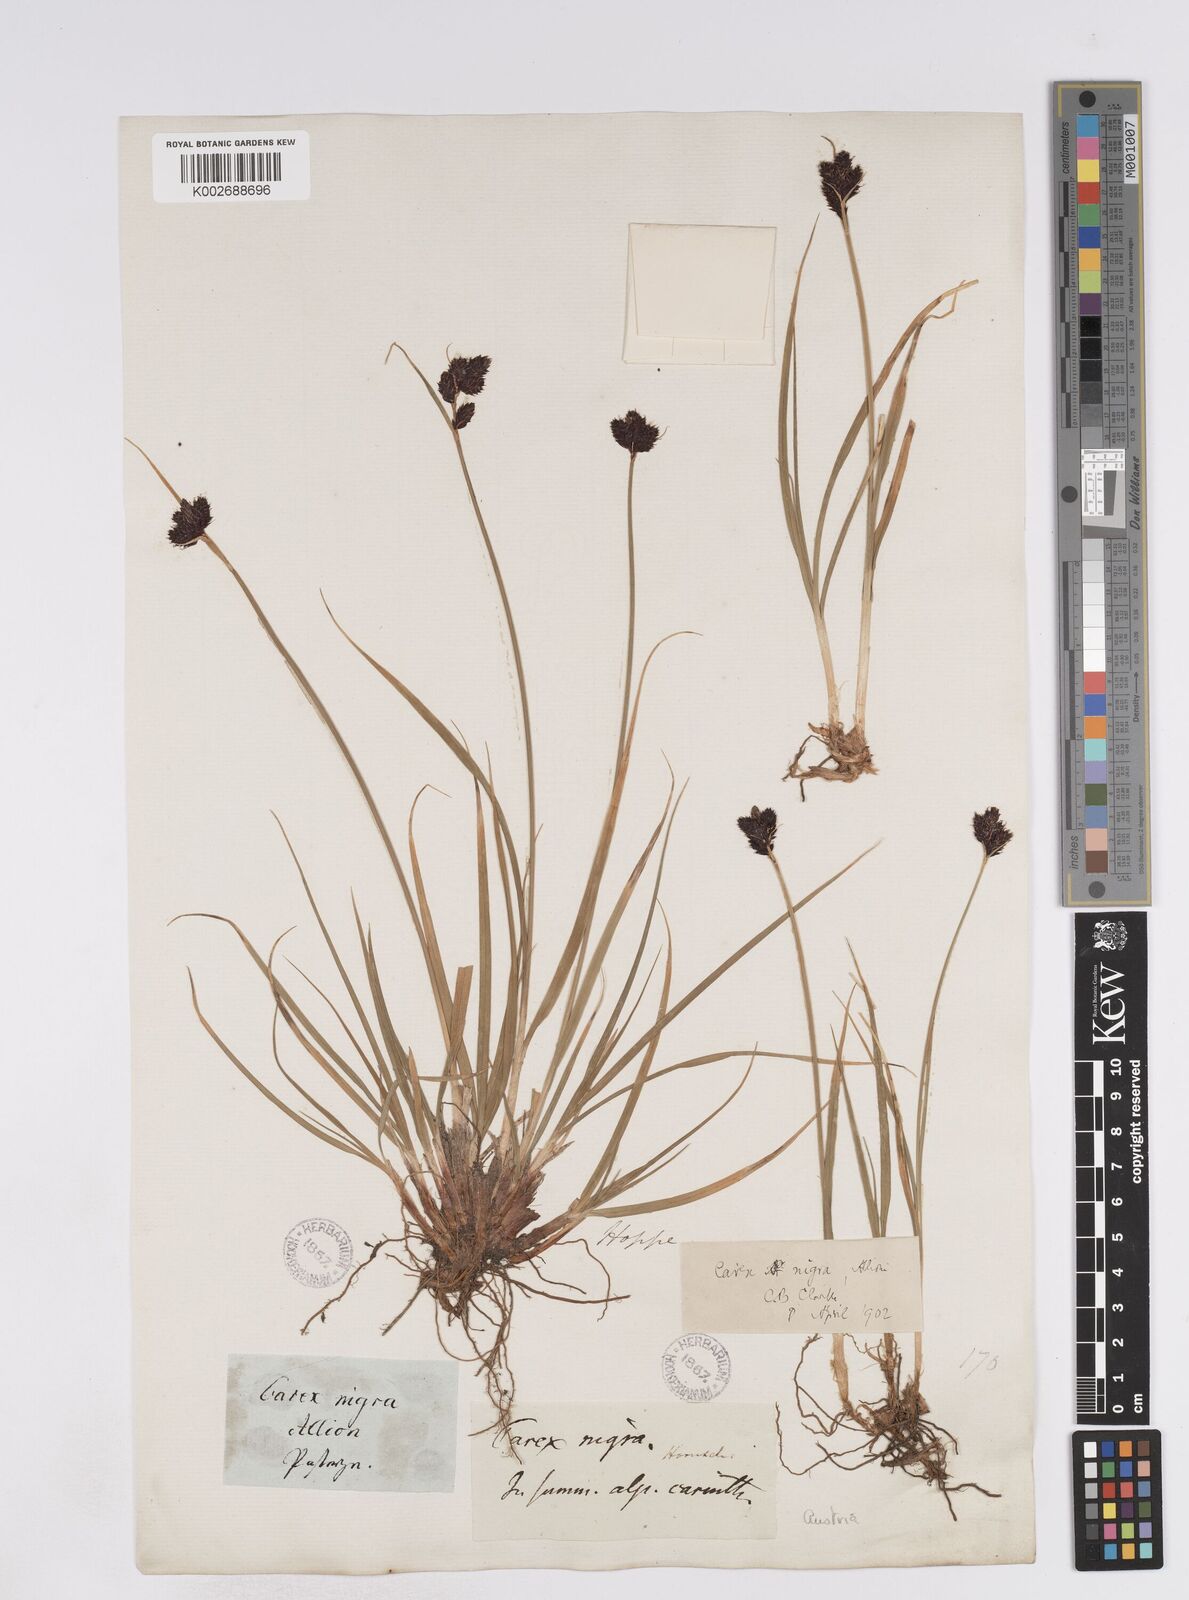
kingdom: Plantae
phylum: Tracheophyta
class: Liliopsida
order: Poales
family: Cyperaceae
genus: Carex
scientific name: Carex parviflora
